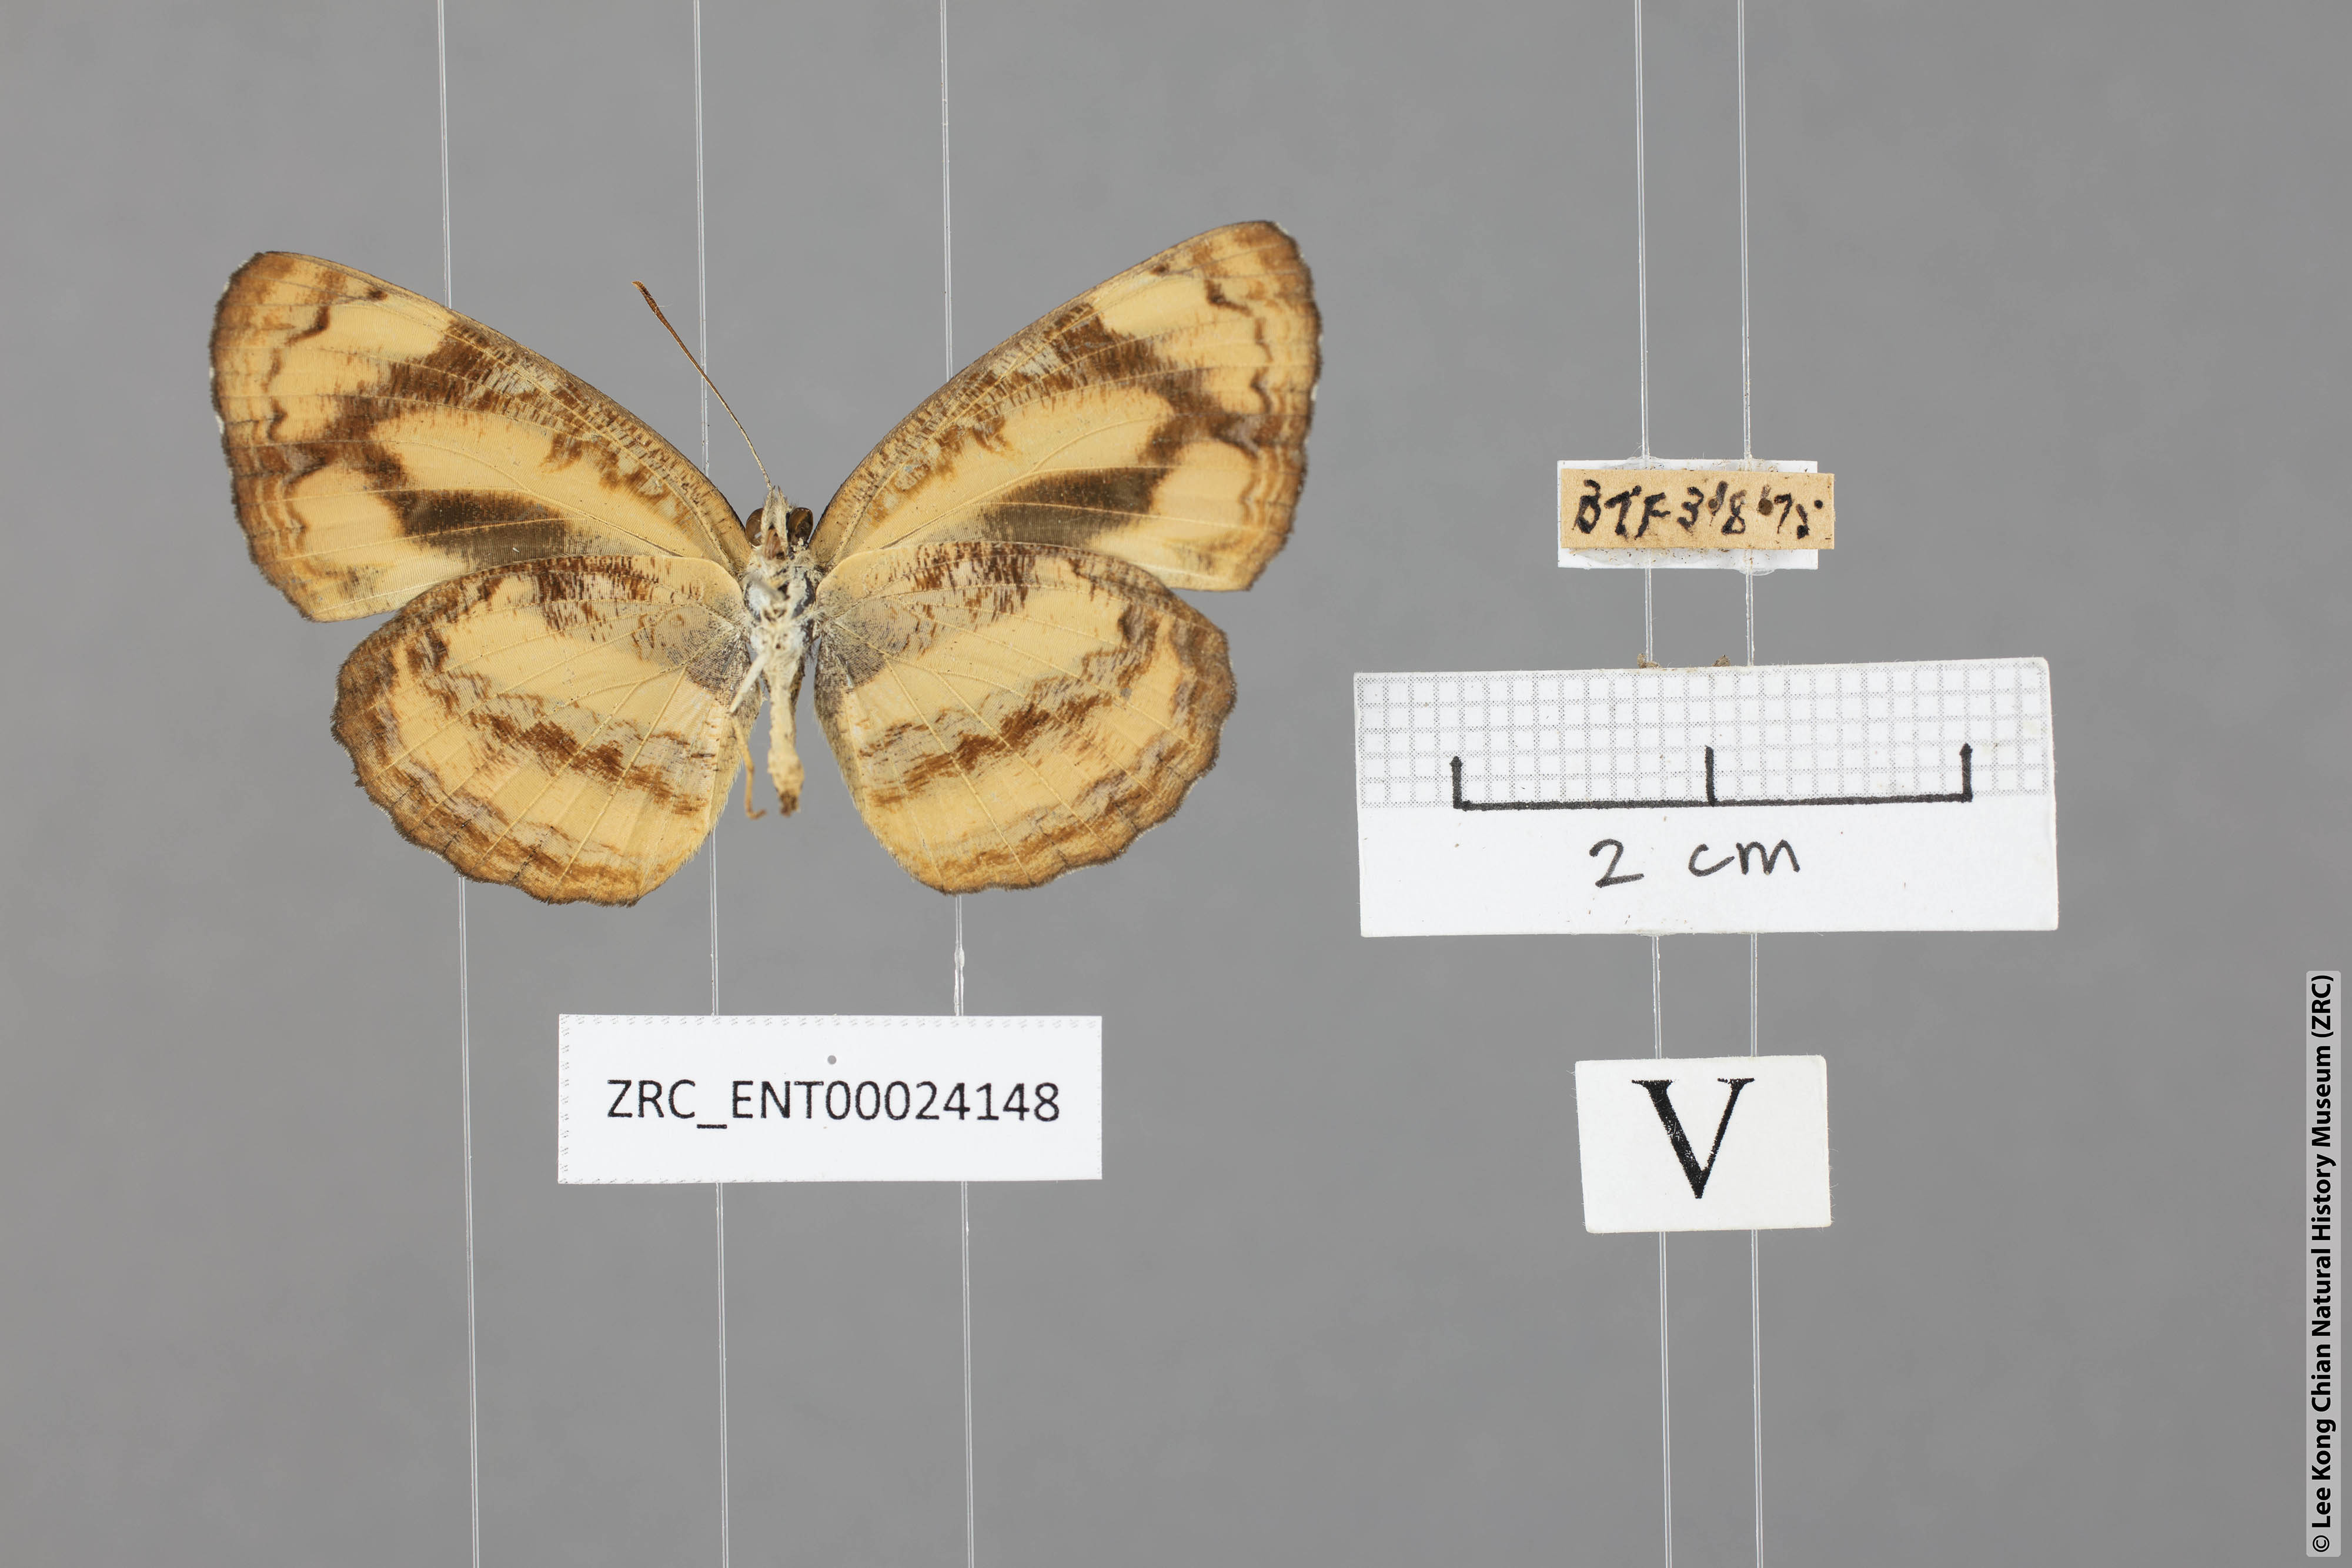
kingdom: Animalia
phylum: Arthropoda
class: Insecta
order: Lepidoptera
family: Nymphalidae
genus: Pantoporia
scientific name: Pantoporia sandaka
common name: Extra lascar
